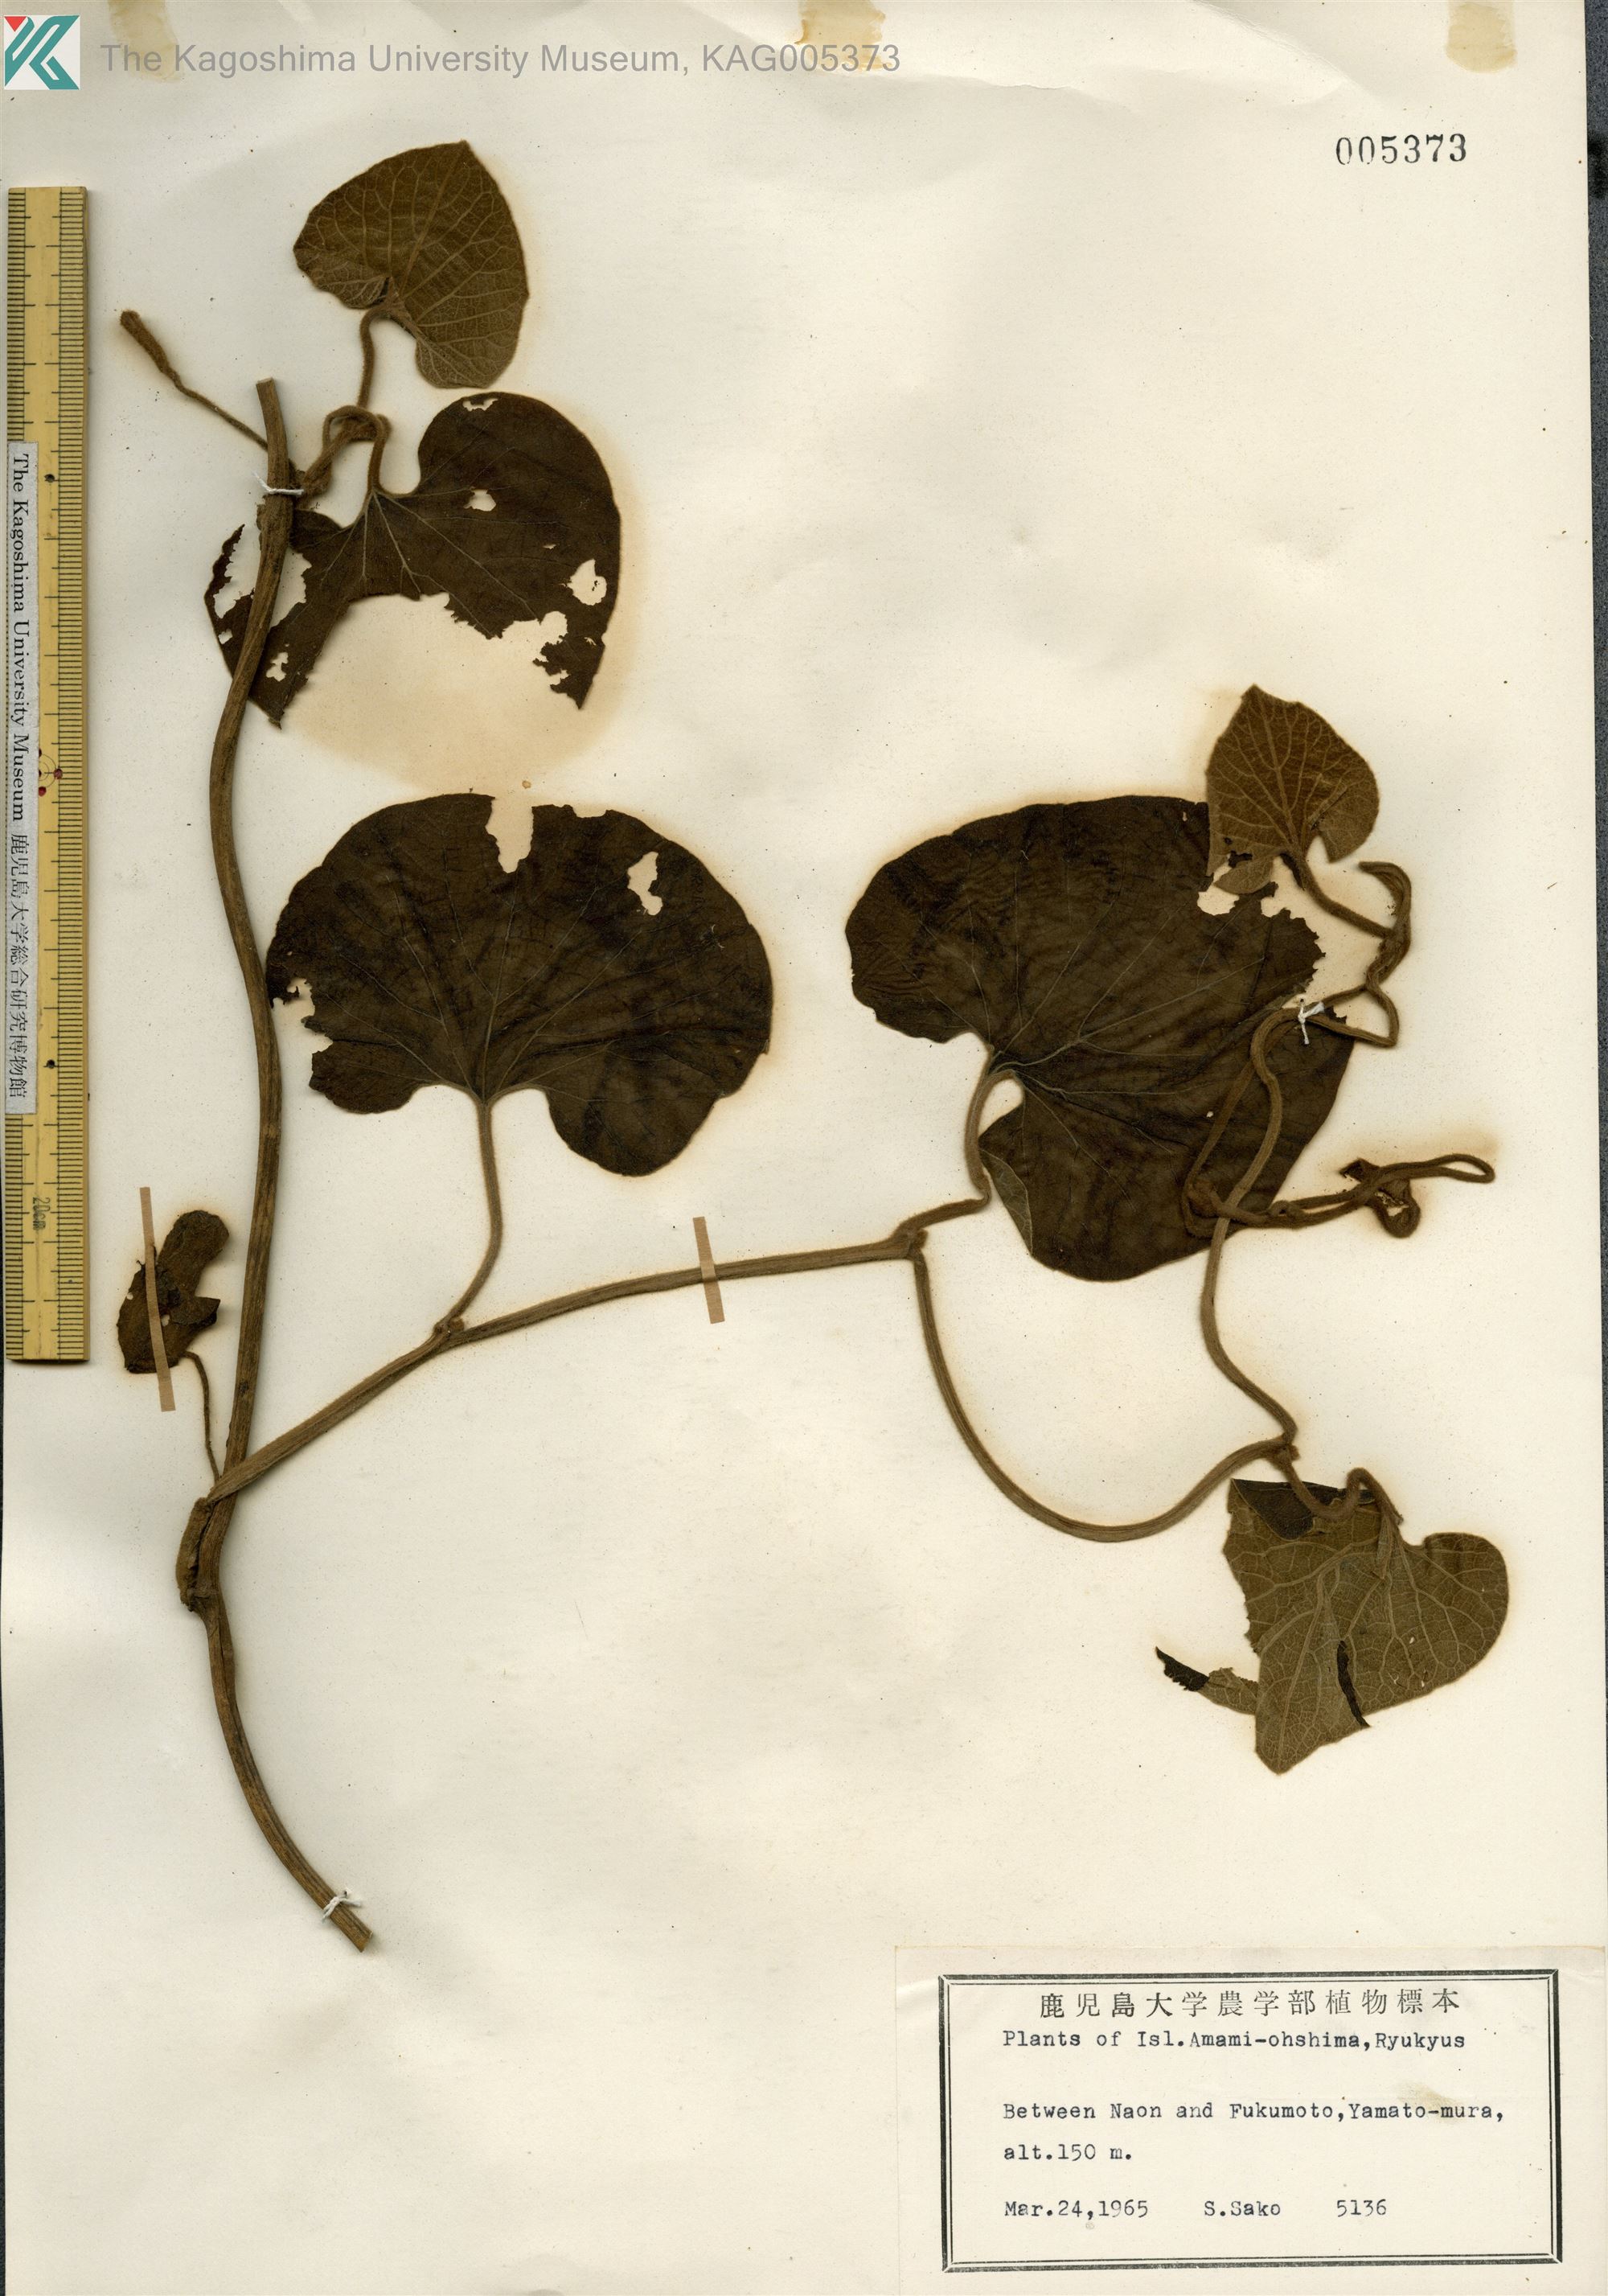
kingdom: Plantae
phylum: Tracheophyta
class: Magnoliopsida
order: Piperales
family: Aristolochiaceae
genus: Isotrema
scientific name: Isotrema liukiuense
